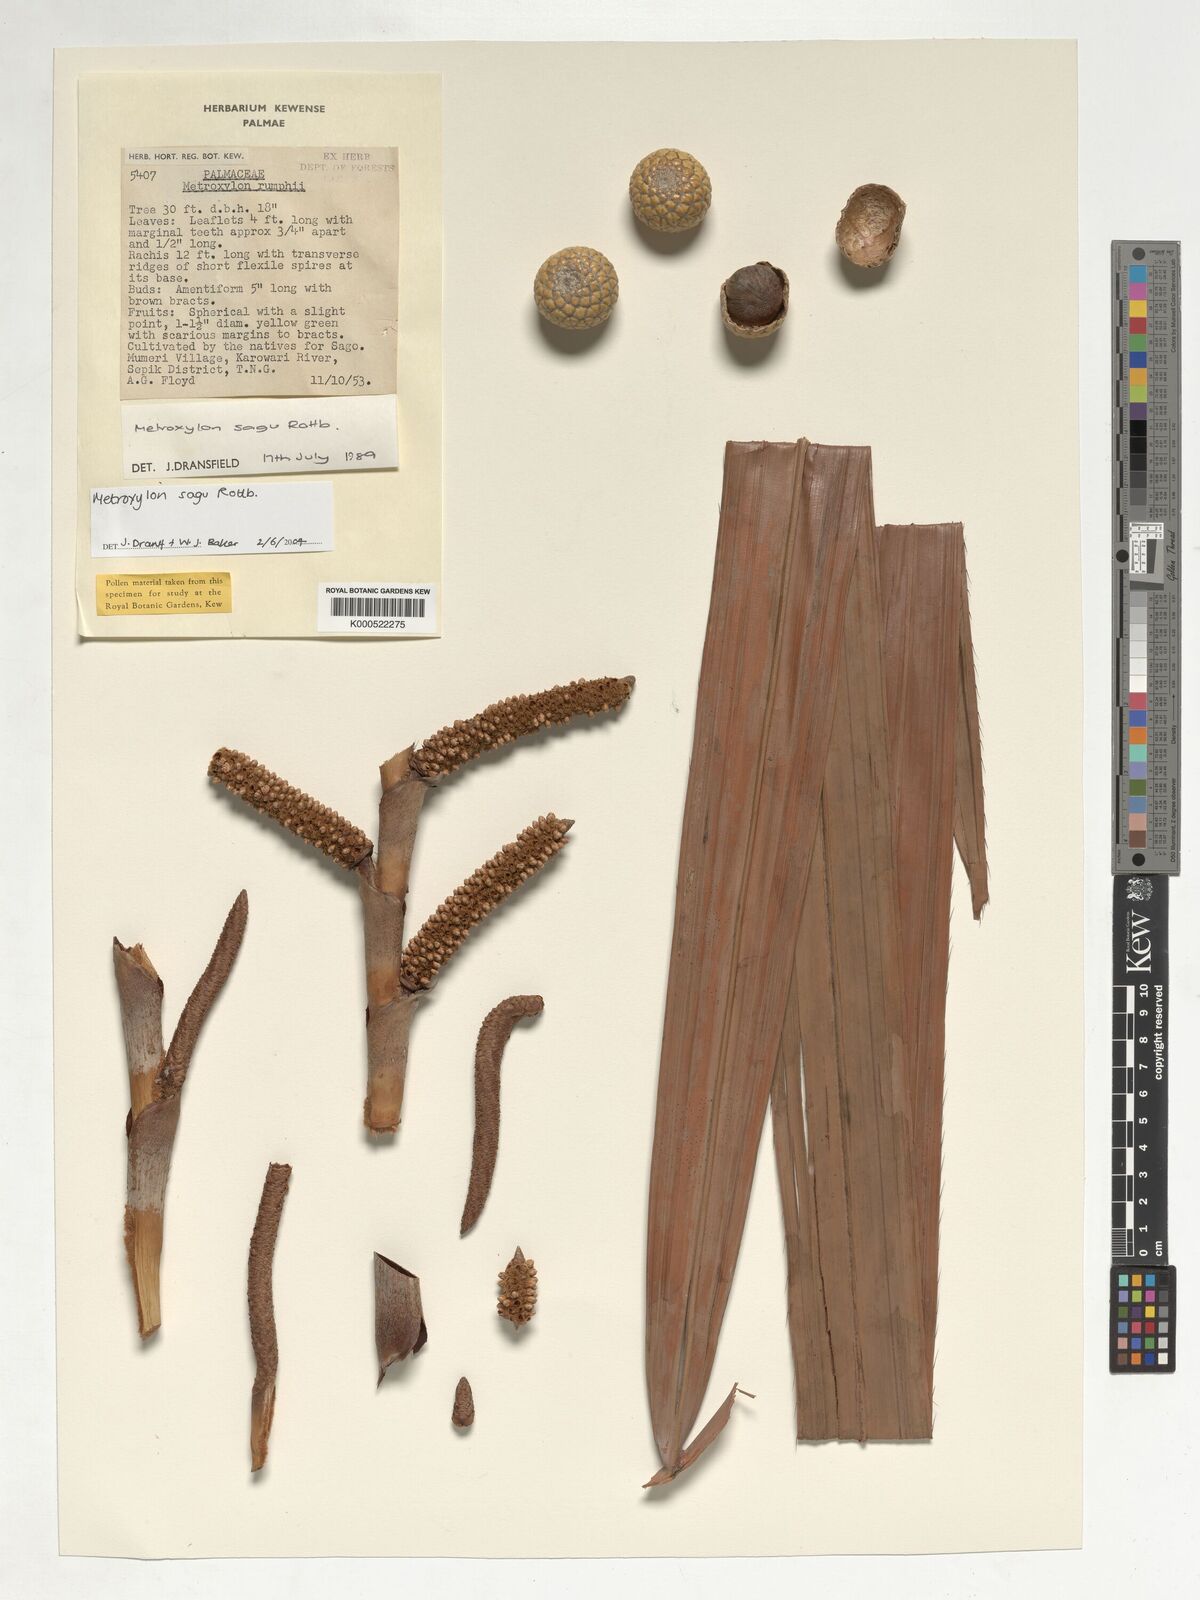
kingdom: Plantae
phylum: Tracheophyta
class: Liliopsida
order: Arecales
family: Arecaceae
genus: Metroxylon
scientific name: Metroxylon sagu
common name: Sago palm
